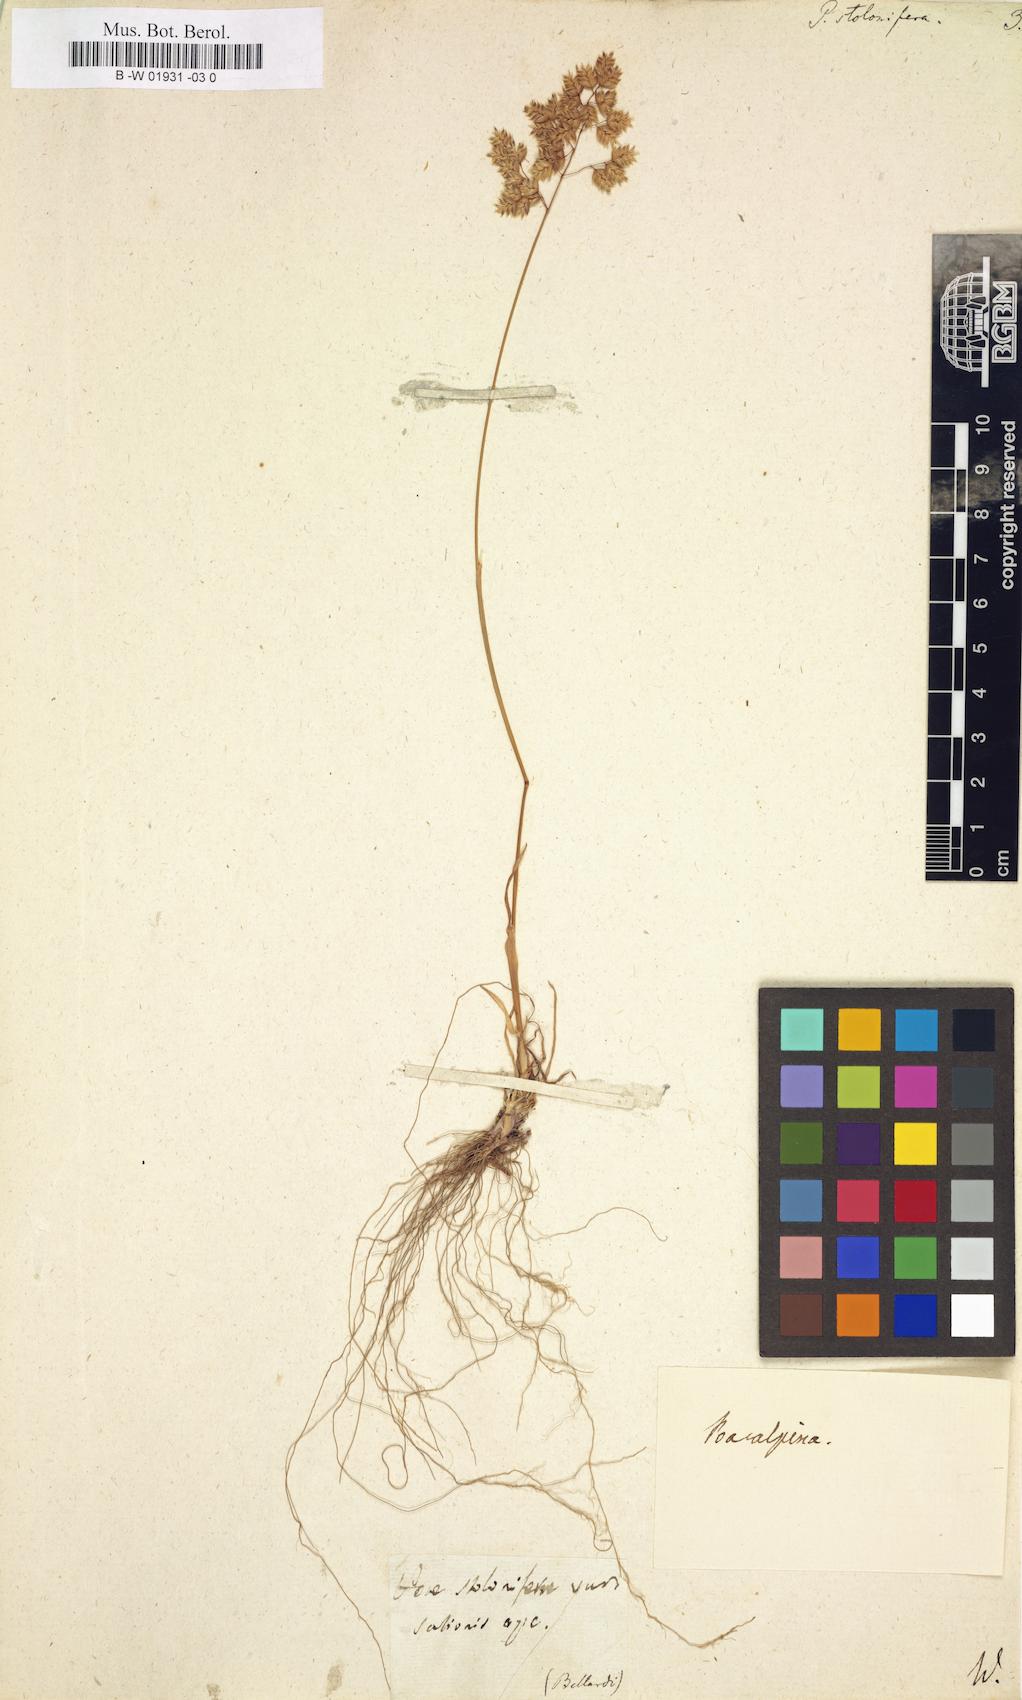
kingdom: Plantae
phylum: Tracheophyta
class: Liliopsida
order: Poales
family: Poaceae
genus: Poa
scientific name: Poa alpina
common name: Alpine bluegrass
